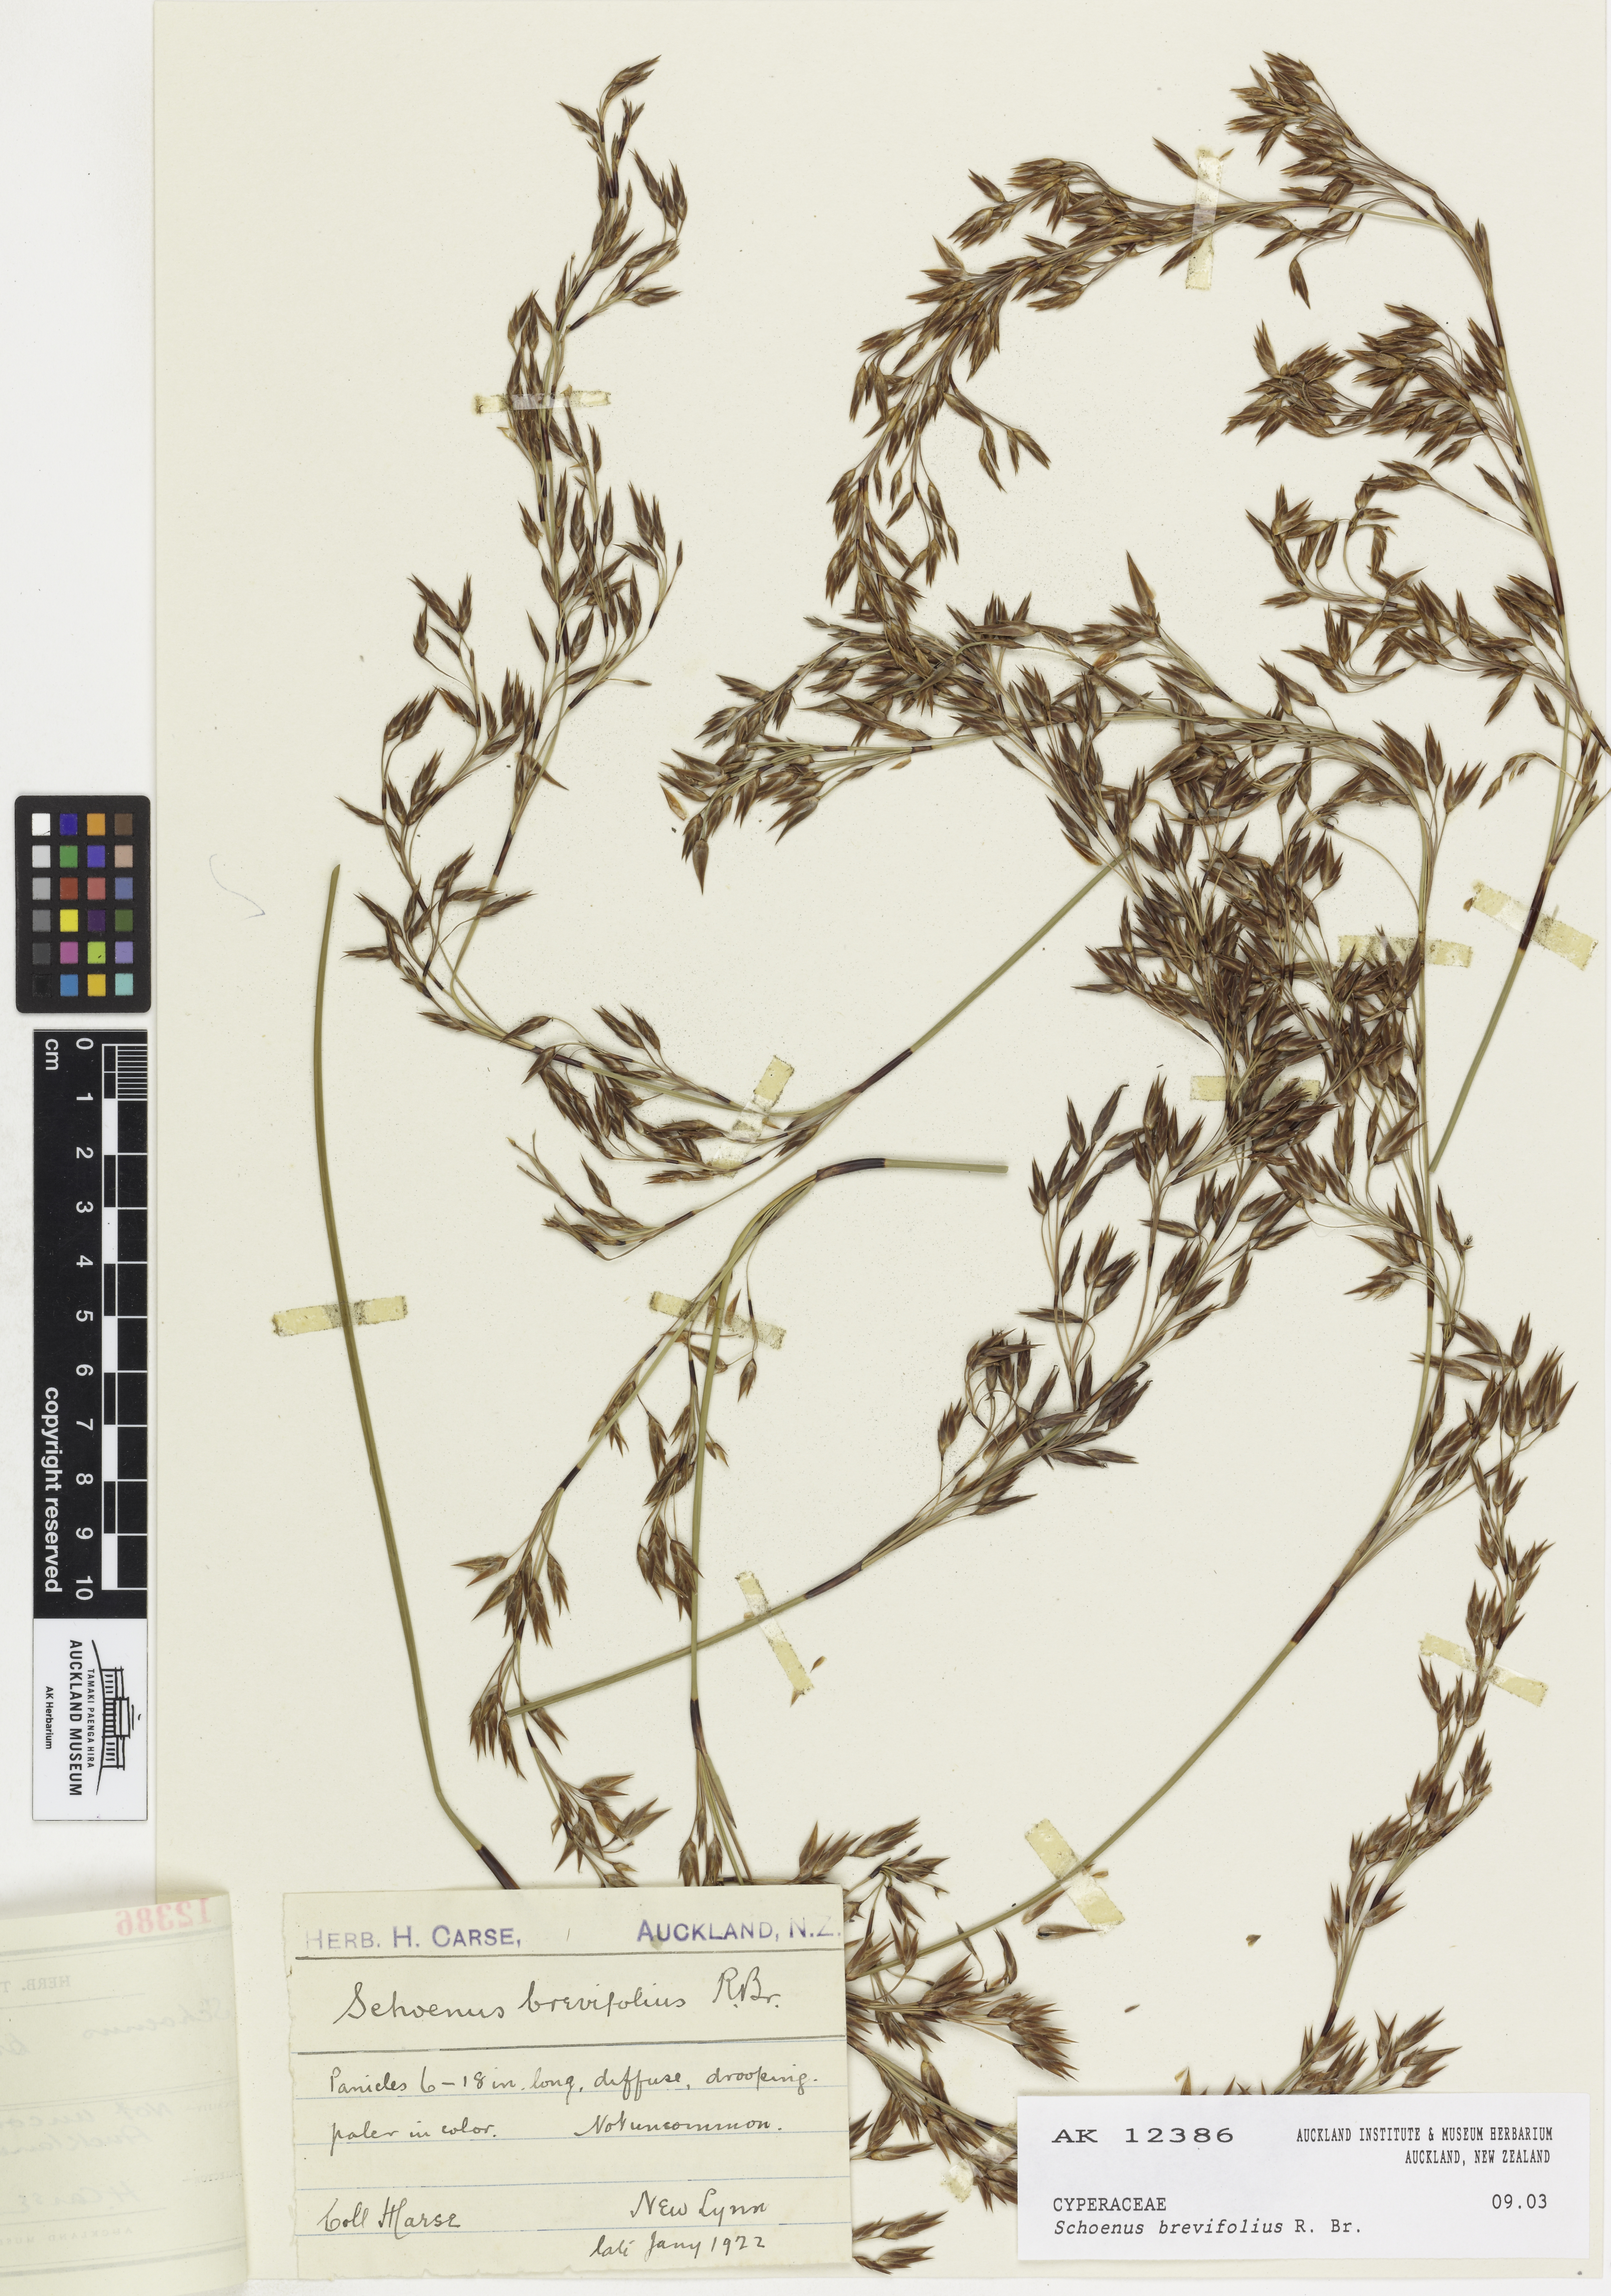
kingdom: Plantae
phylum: Tracheophyta
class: Liliopsida
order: Poales
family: Cyperaceae
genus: Schoenus
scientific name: Schoenus brevifolius
